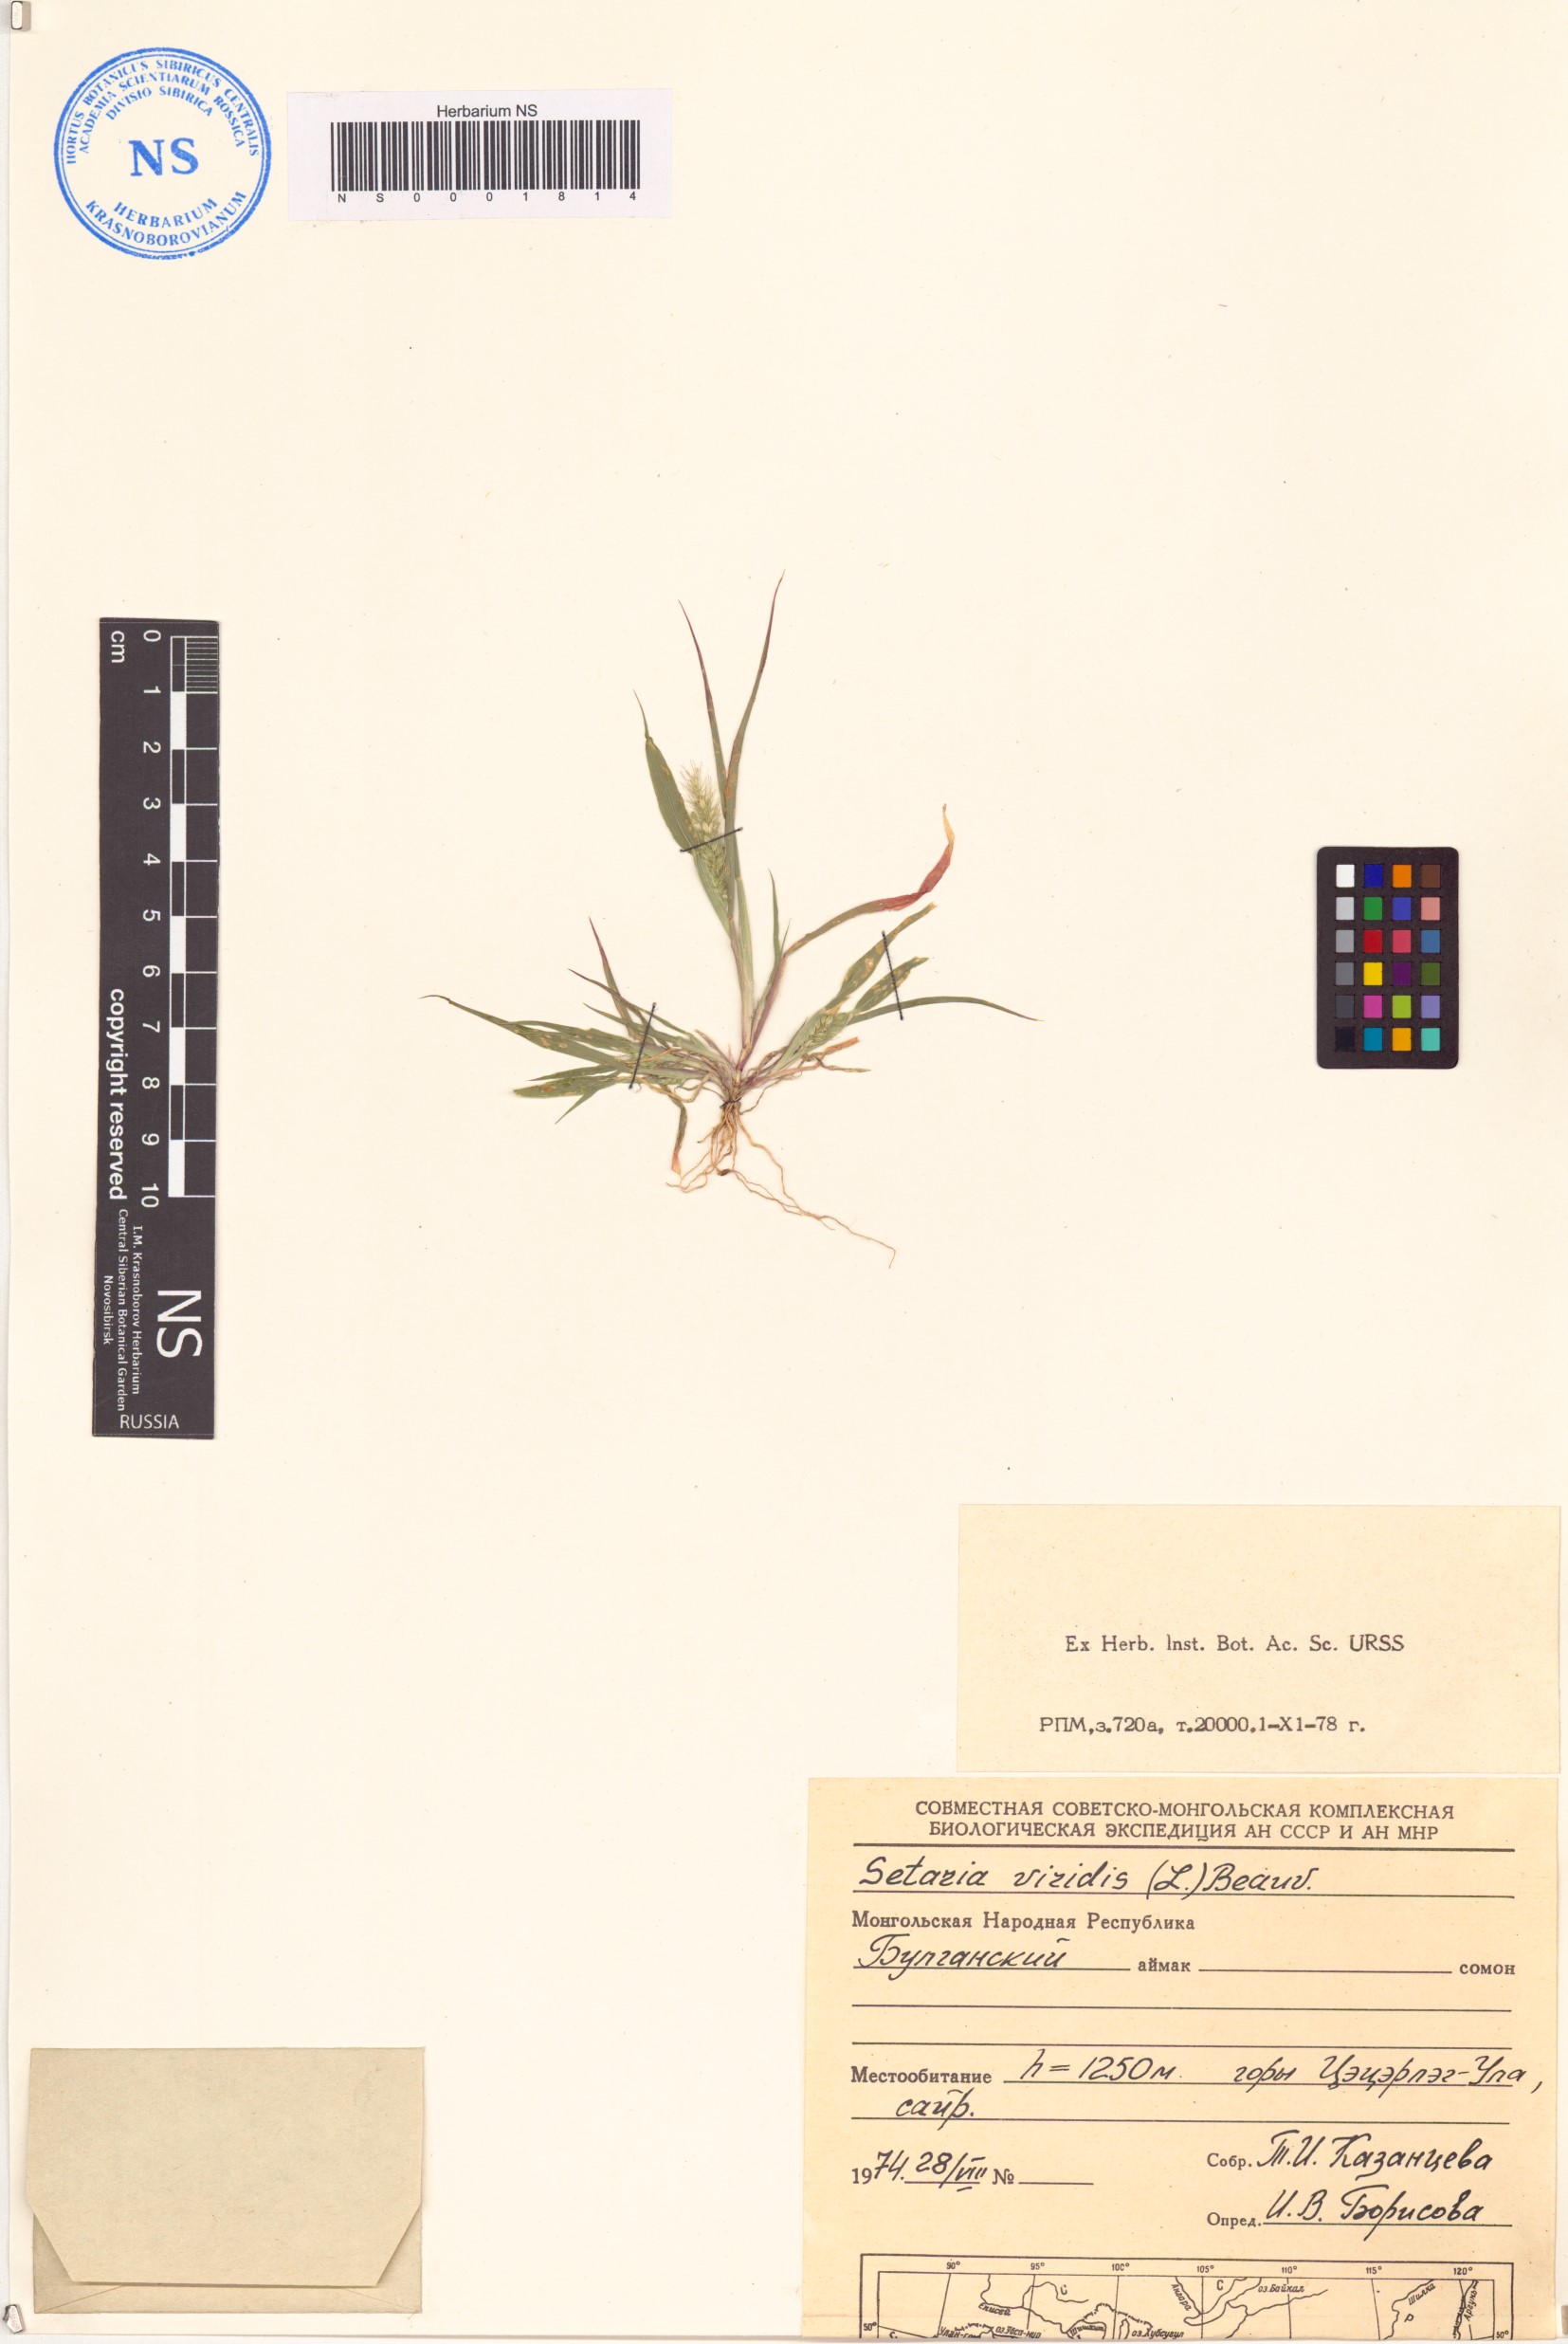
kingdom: Plantae
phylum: Tracheophyta
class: Liliopsida
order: Poales
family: Poaceae
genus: Setaria
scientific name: Setaria viridis
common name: Green bristlegrass
